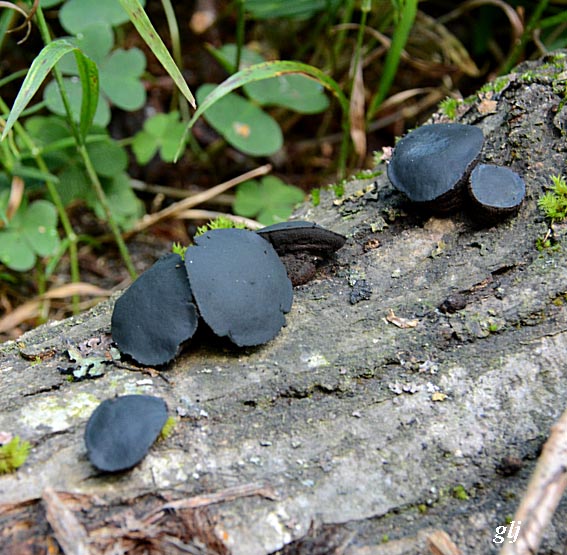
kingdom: Fungi
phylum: Ascomycota
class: Leotiomycetes
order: Phacidiales
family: Phacidiaceae
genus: Bulgaria
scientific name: Bulgaria inquinans
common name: afsmittende topsvamp
